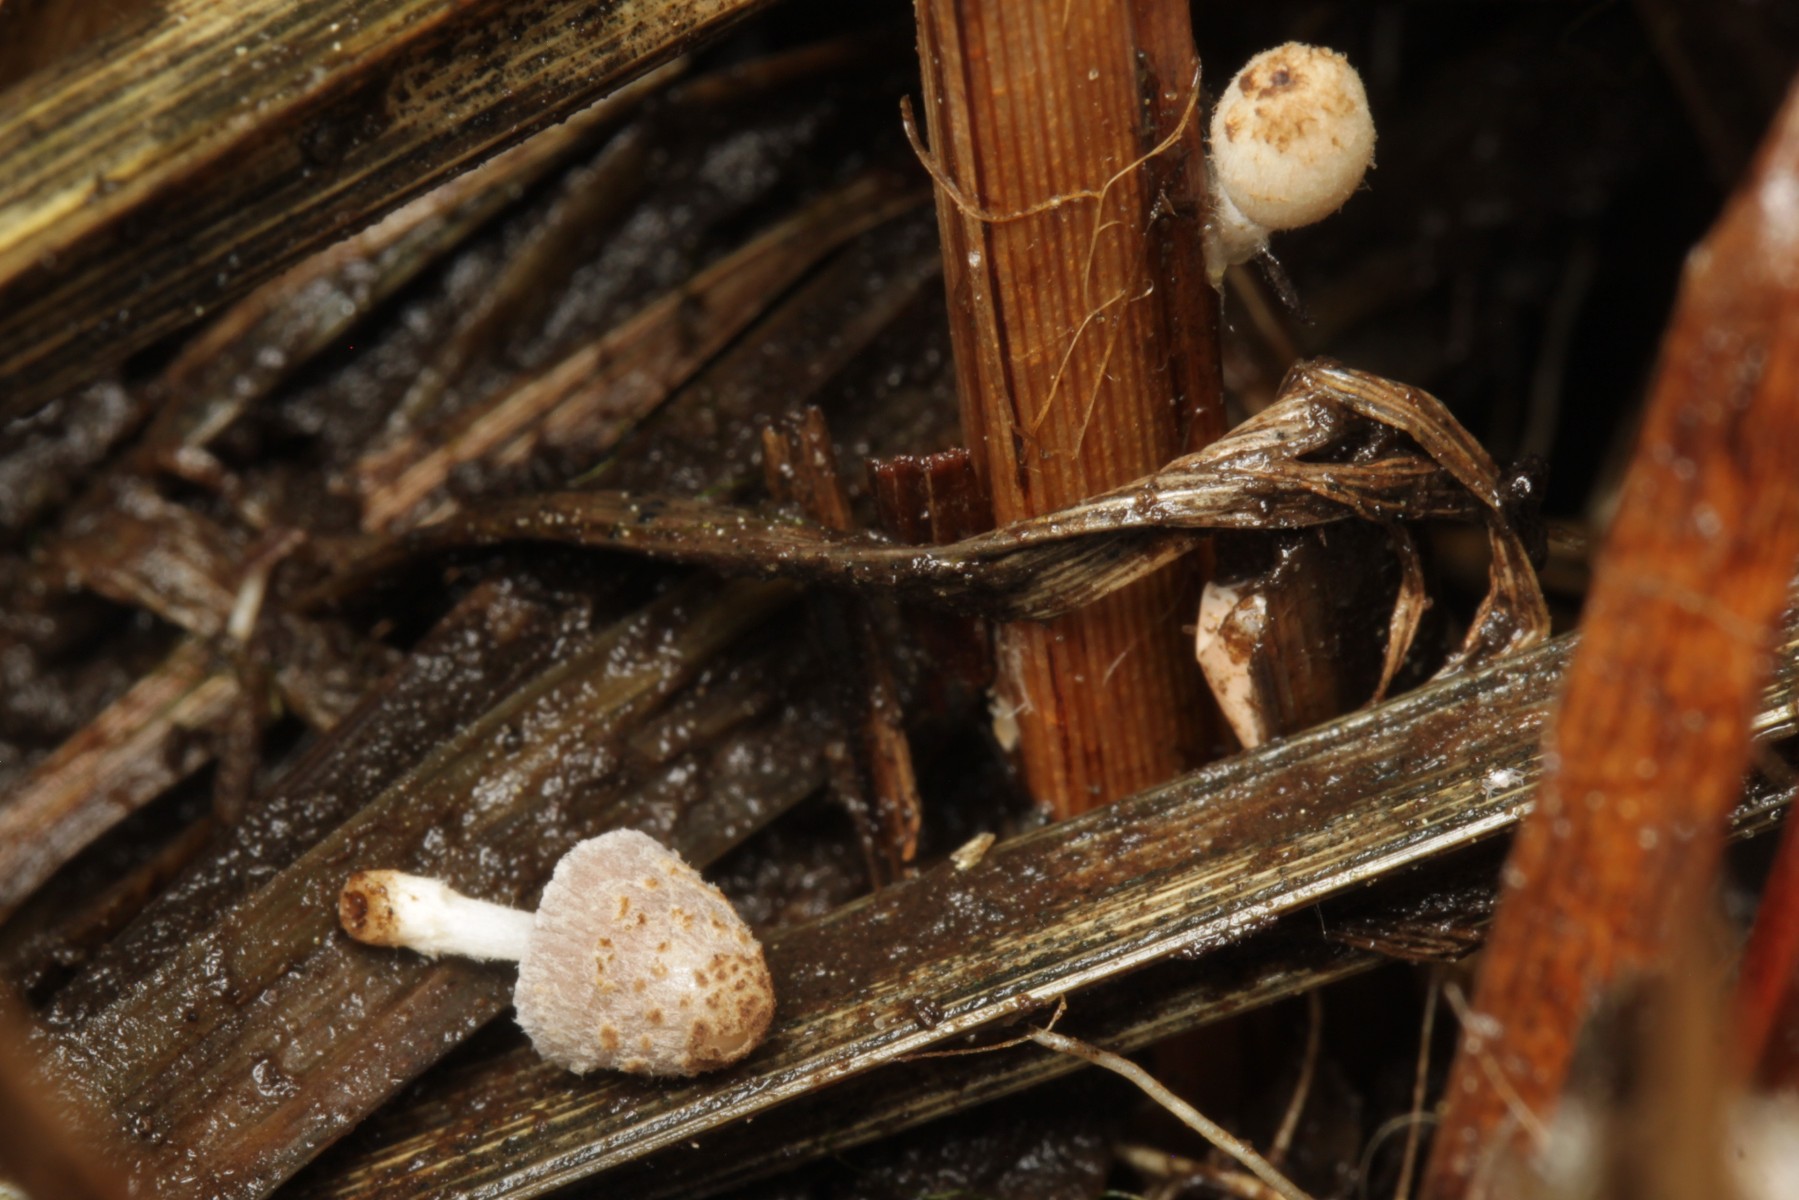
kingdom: Fungi
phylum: Basidiomycota
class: Agaricomycetes
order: Agaricales
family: Psathyrellaceae
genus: Coprinopsis
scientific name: Coprinopsis kubickae
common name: amfibie-blækhat
